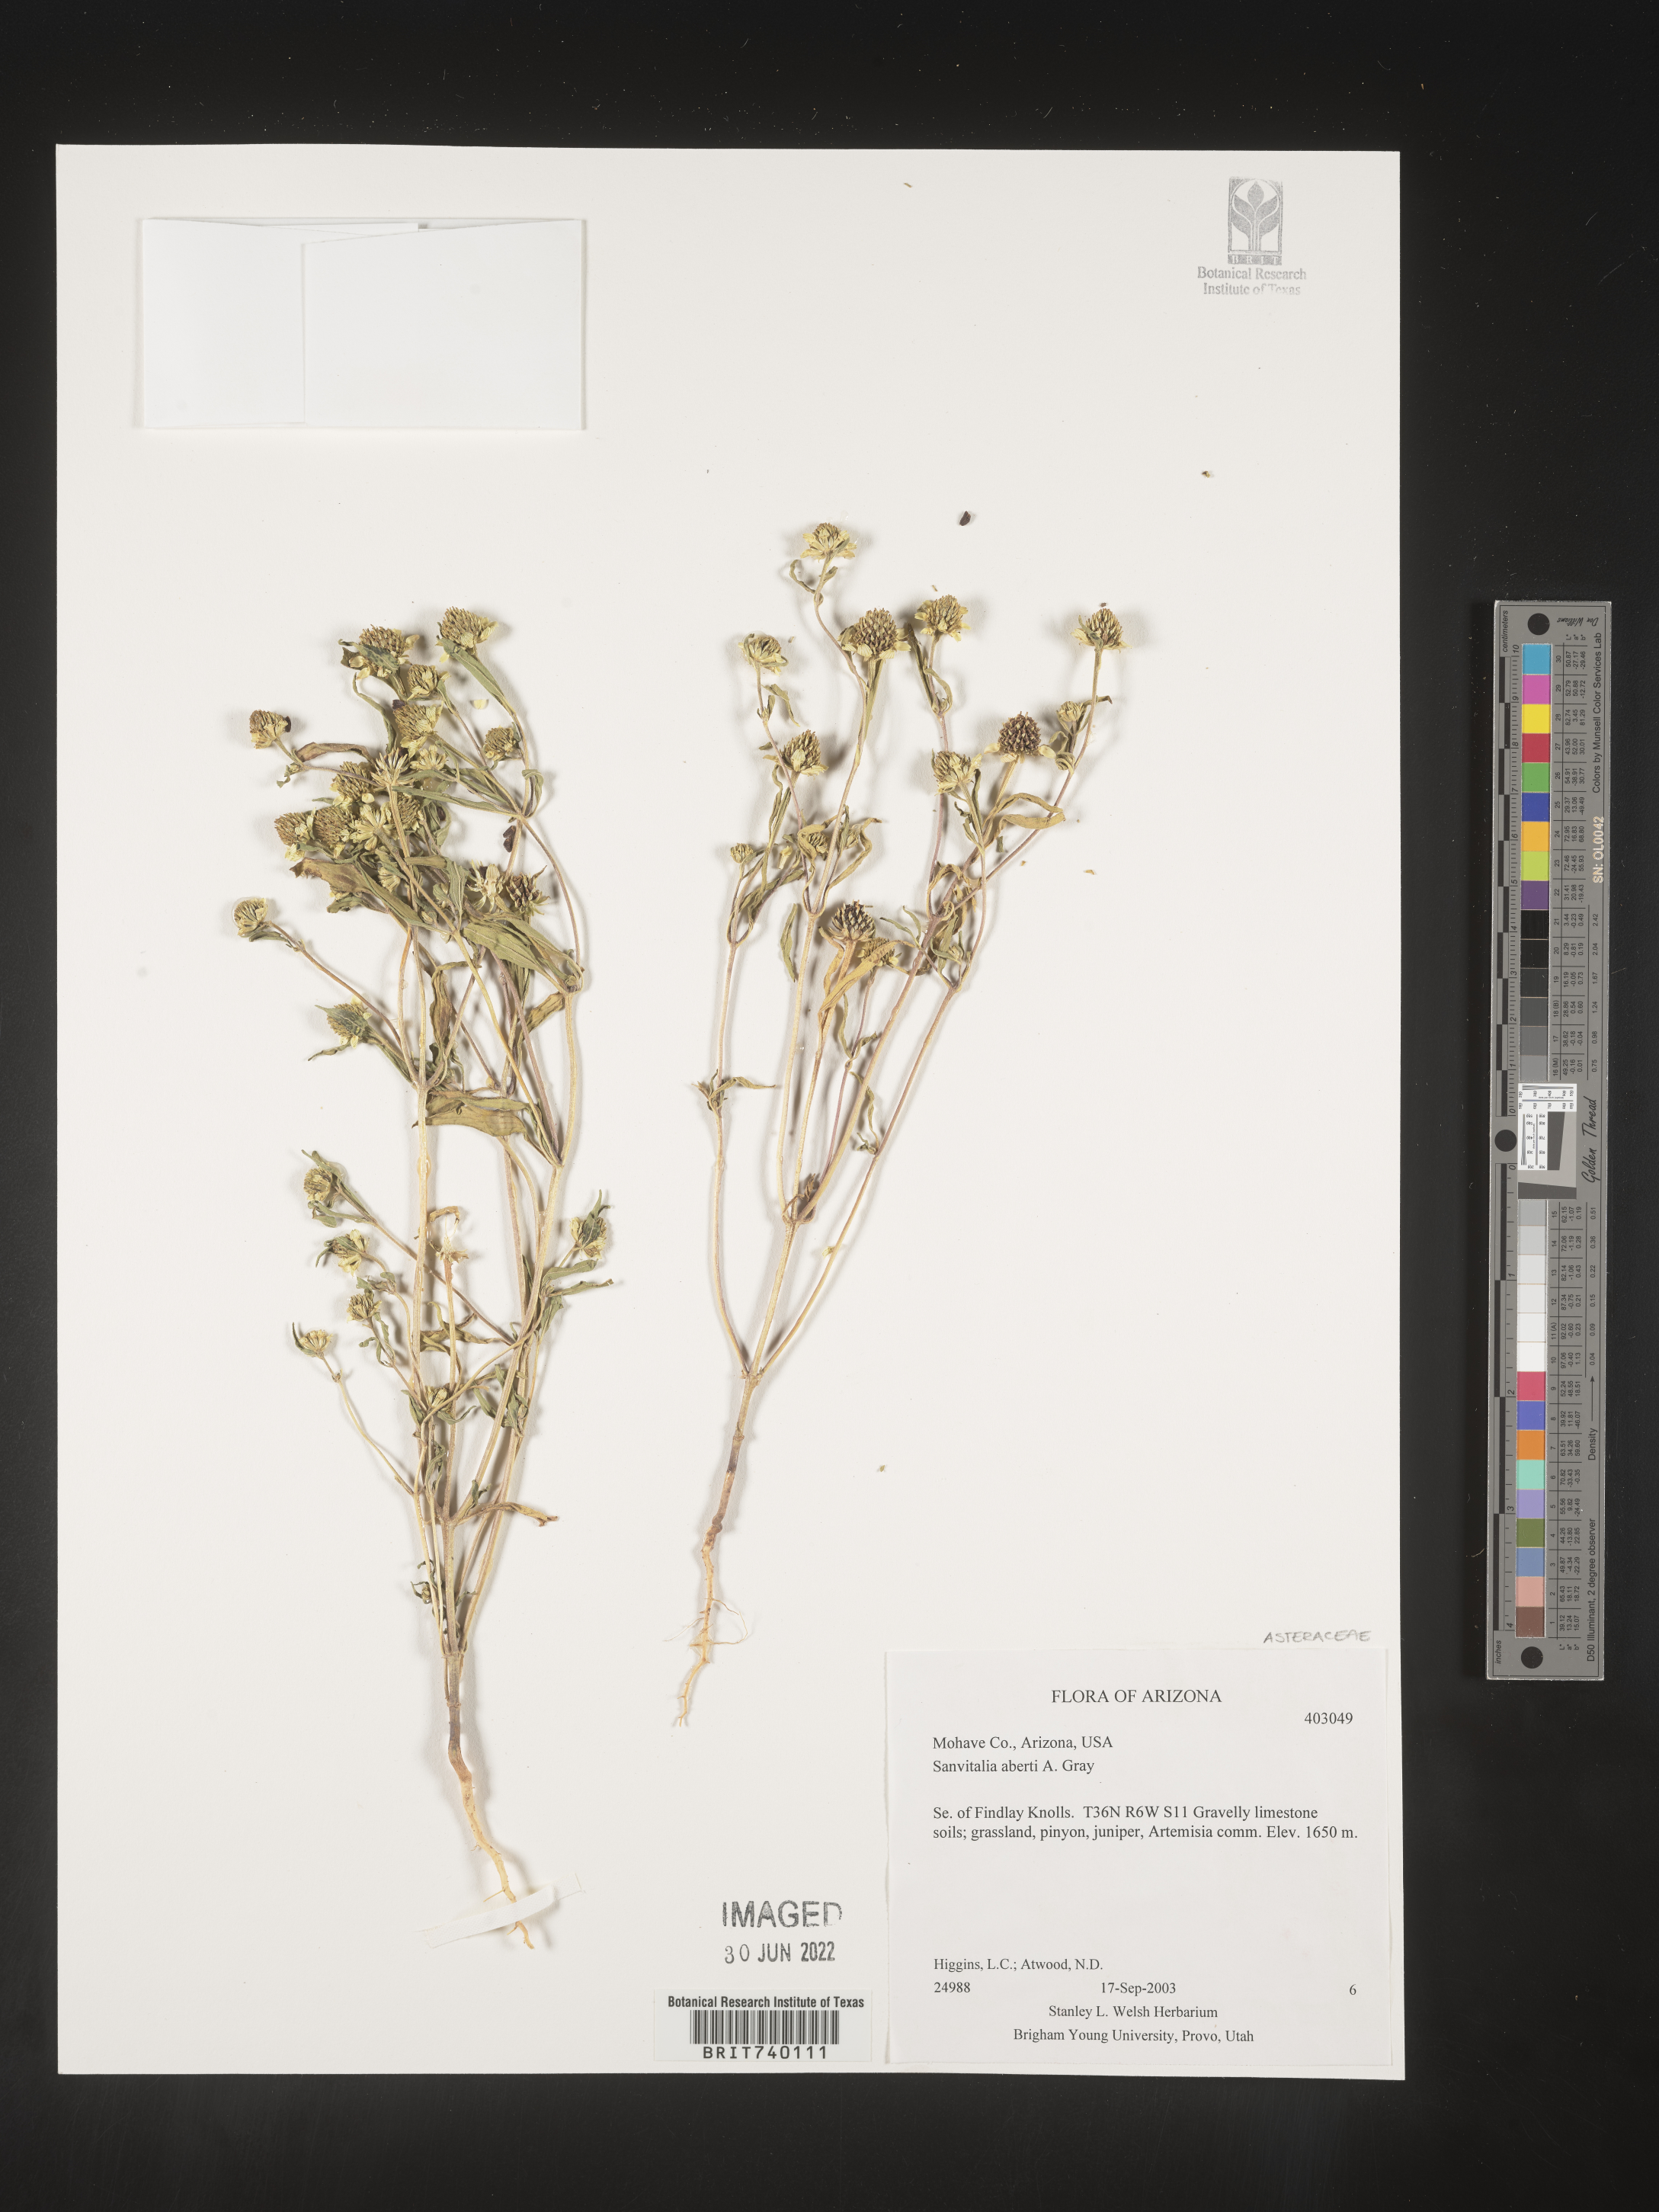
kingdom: Plantae
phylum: Tracheophyta
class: Magnoliopsida
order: Asterales
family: Asteraceae
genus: Sanvitalia
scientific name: Sanvitalia abertii
